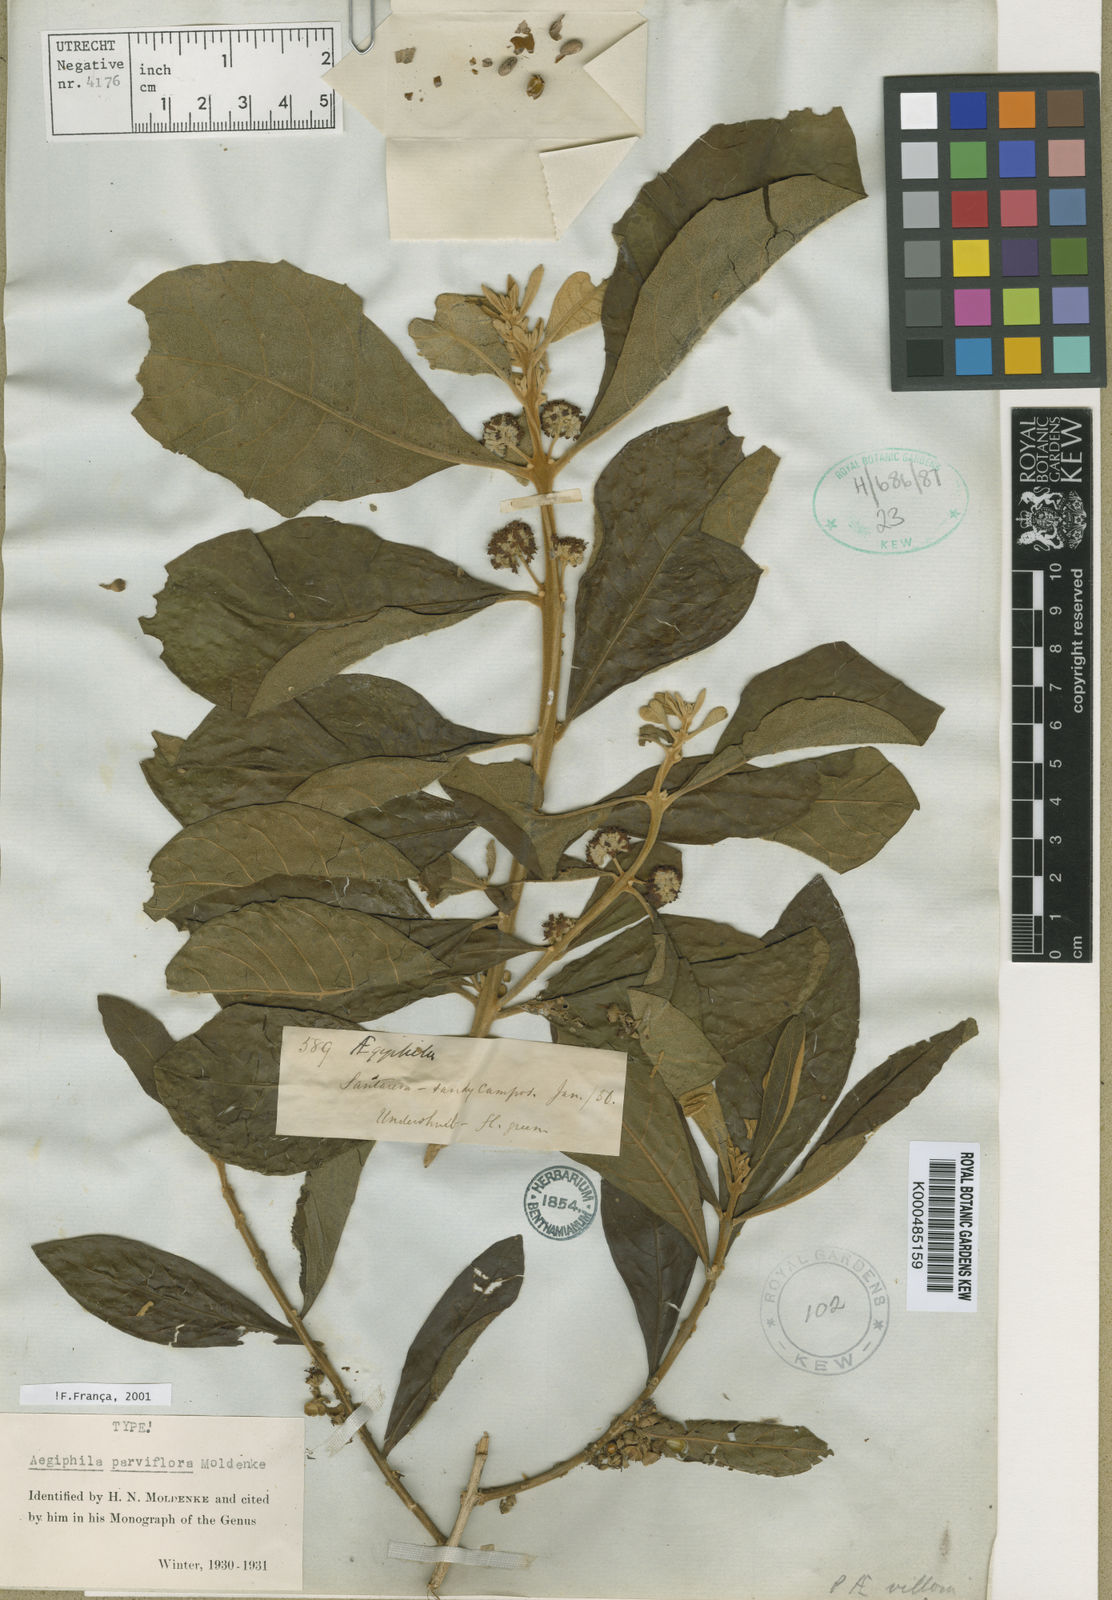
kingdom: Plantae
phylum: Tracheophyta
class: Magnoliopsida
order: Lamiales
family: Lamiaceae
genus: Aegiphila
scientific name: Aegiphila integrifolia
